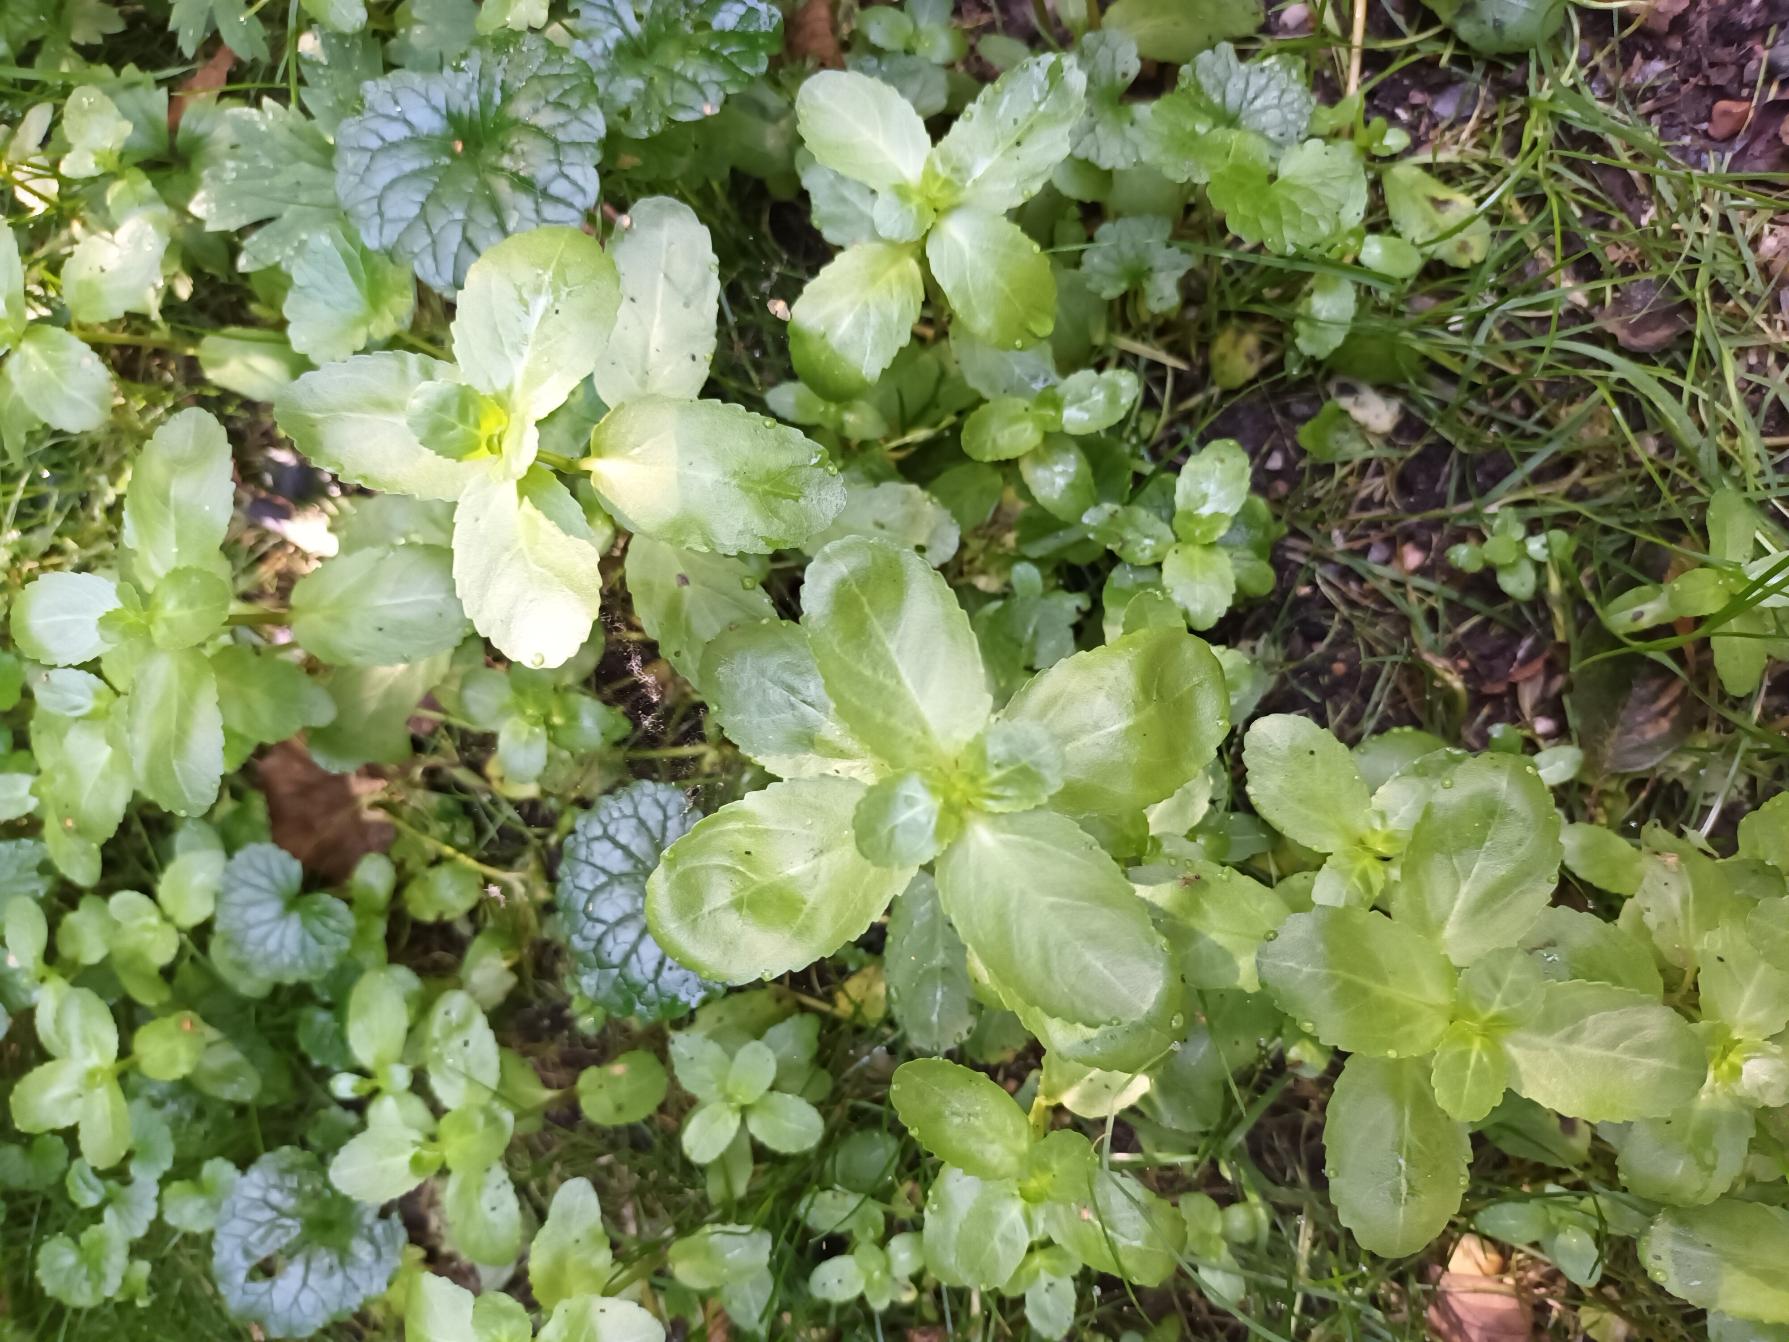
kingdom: Plantae
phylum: Tracheophyta
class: Magnoliopsida
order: Lamiales
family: Plantaginaceae
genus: Veronica
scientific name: Veronica beccabunga
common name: Tykbladet ærenpris
